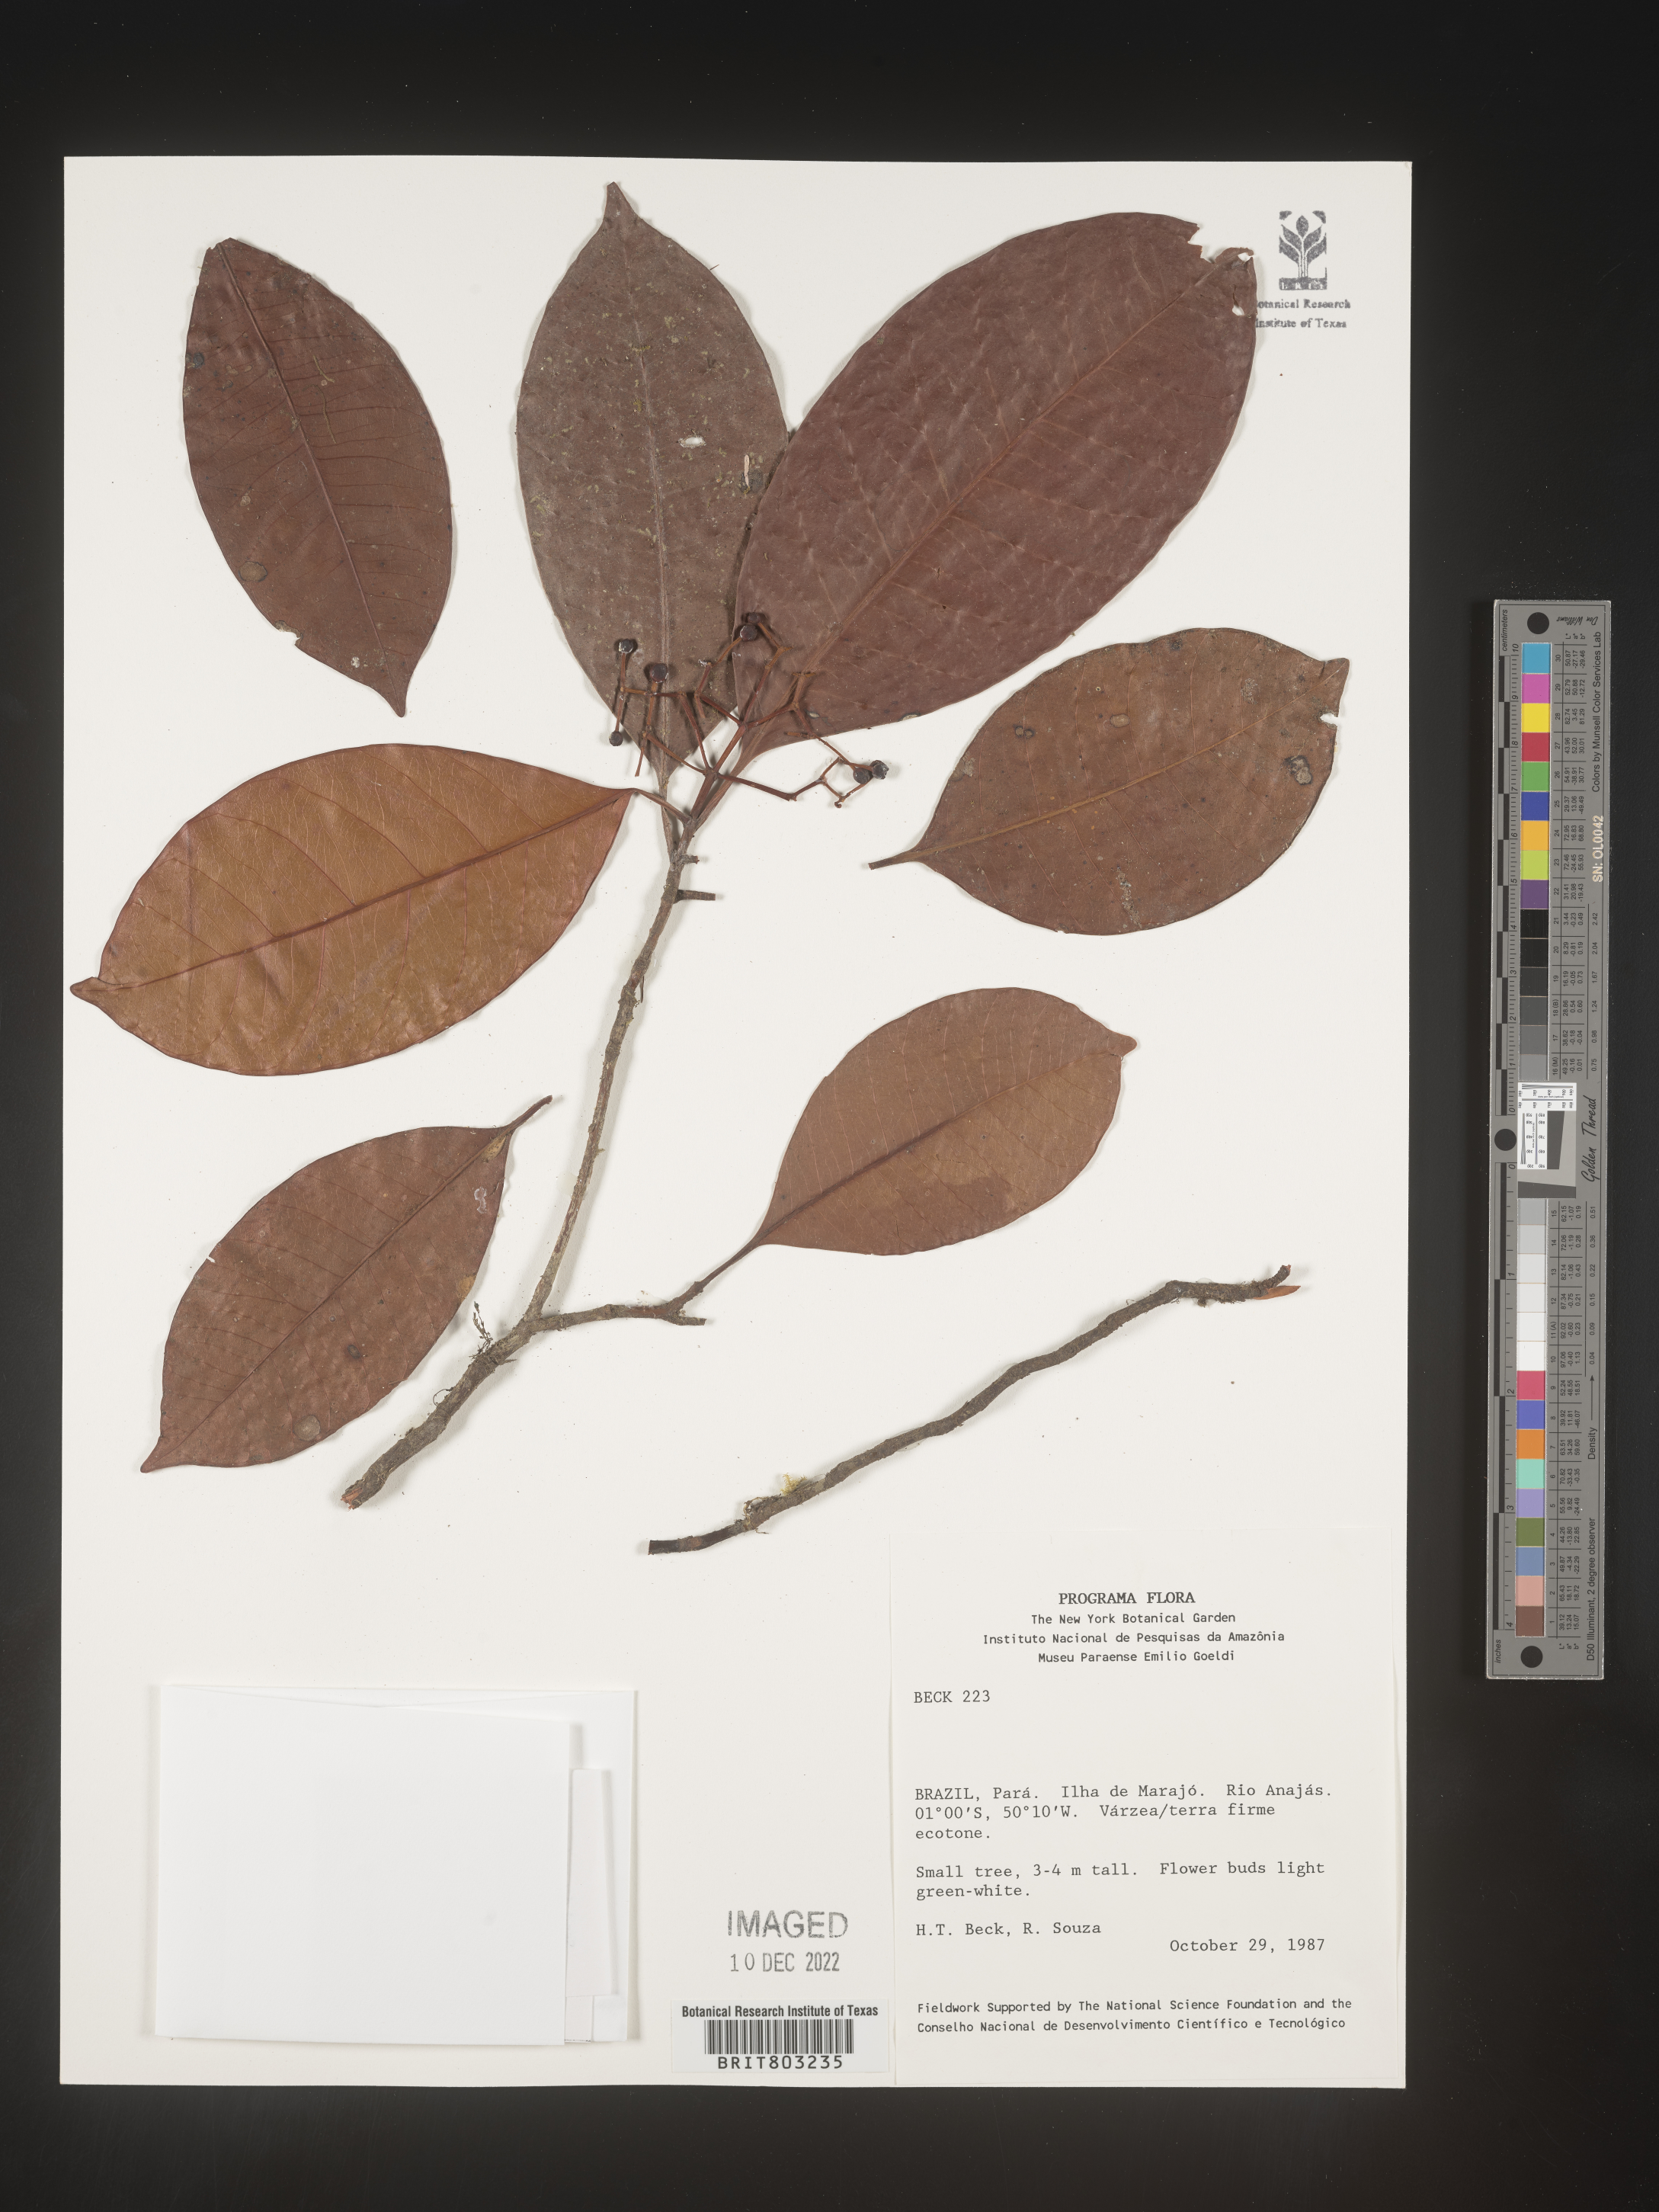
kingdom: Plantae
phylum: Tracheophyta
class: Magnoliopsida
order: Malpighiales
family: Clusiaceae
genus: Tovomita
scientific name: Tovomita
